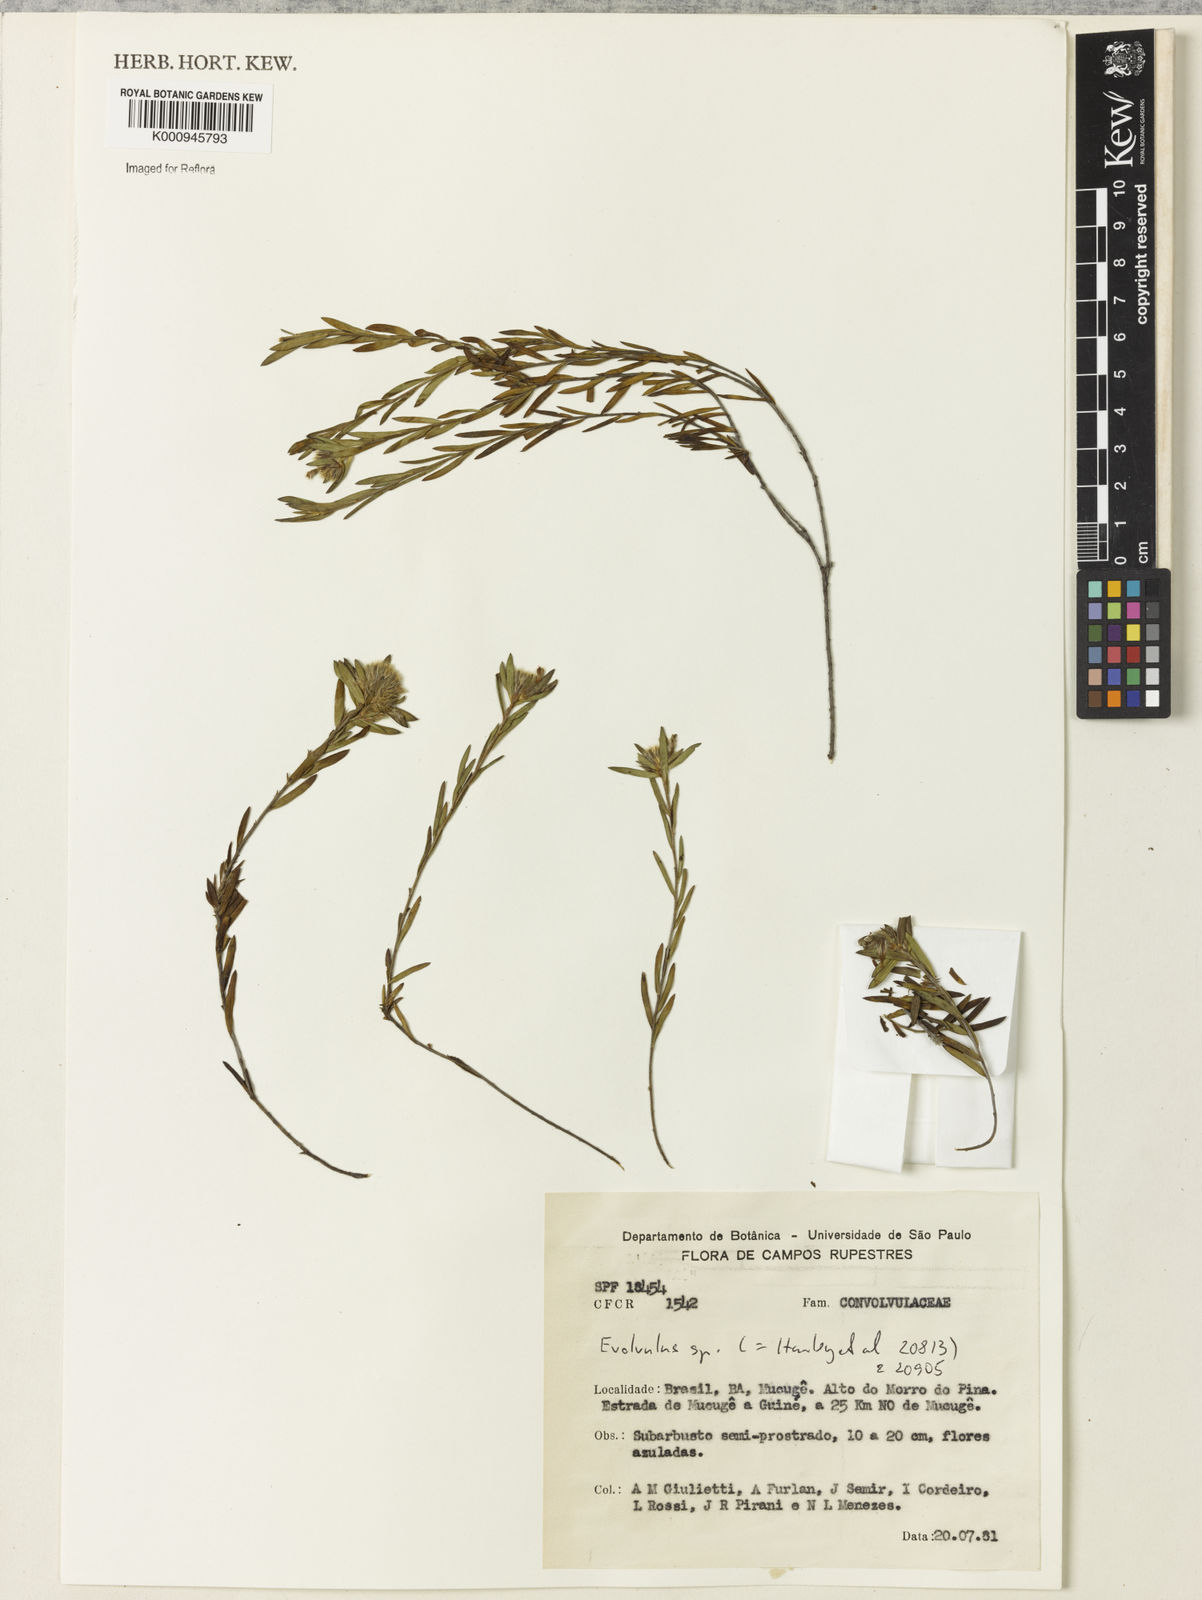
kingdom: Plantae
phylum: Tracheophyta
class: Magnoliopsida
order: Solanales
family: Convolvulaceae
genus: Evolvulus
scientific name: Evolvulus
